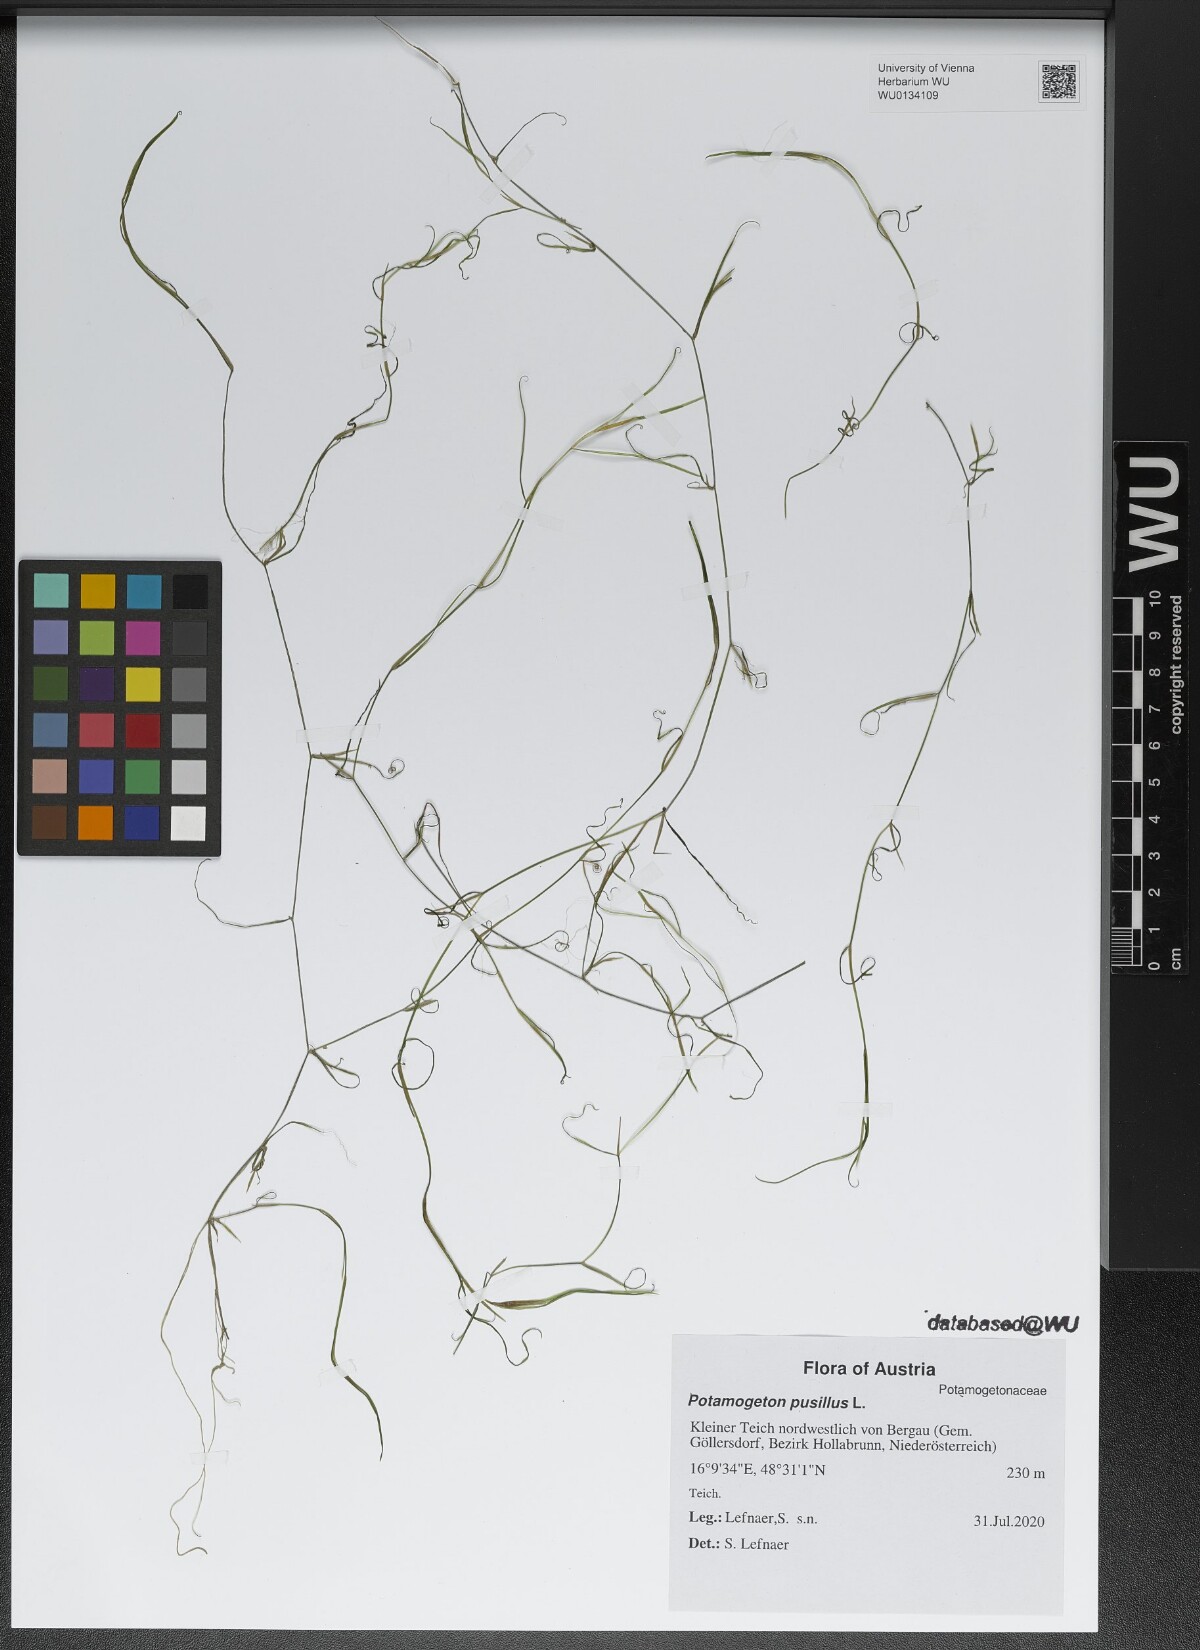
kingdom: Plantae
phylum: Tracheophyta
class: Liliopsida
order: Alismatales
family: Potamogetonaceae
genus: Potamogeton
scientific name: Potamogeton pusillus
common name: Lesser pondweed
